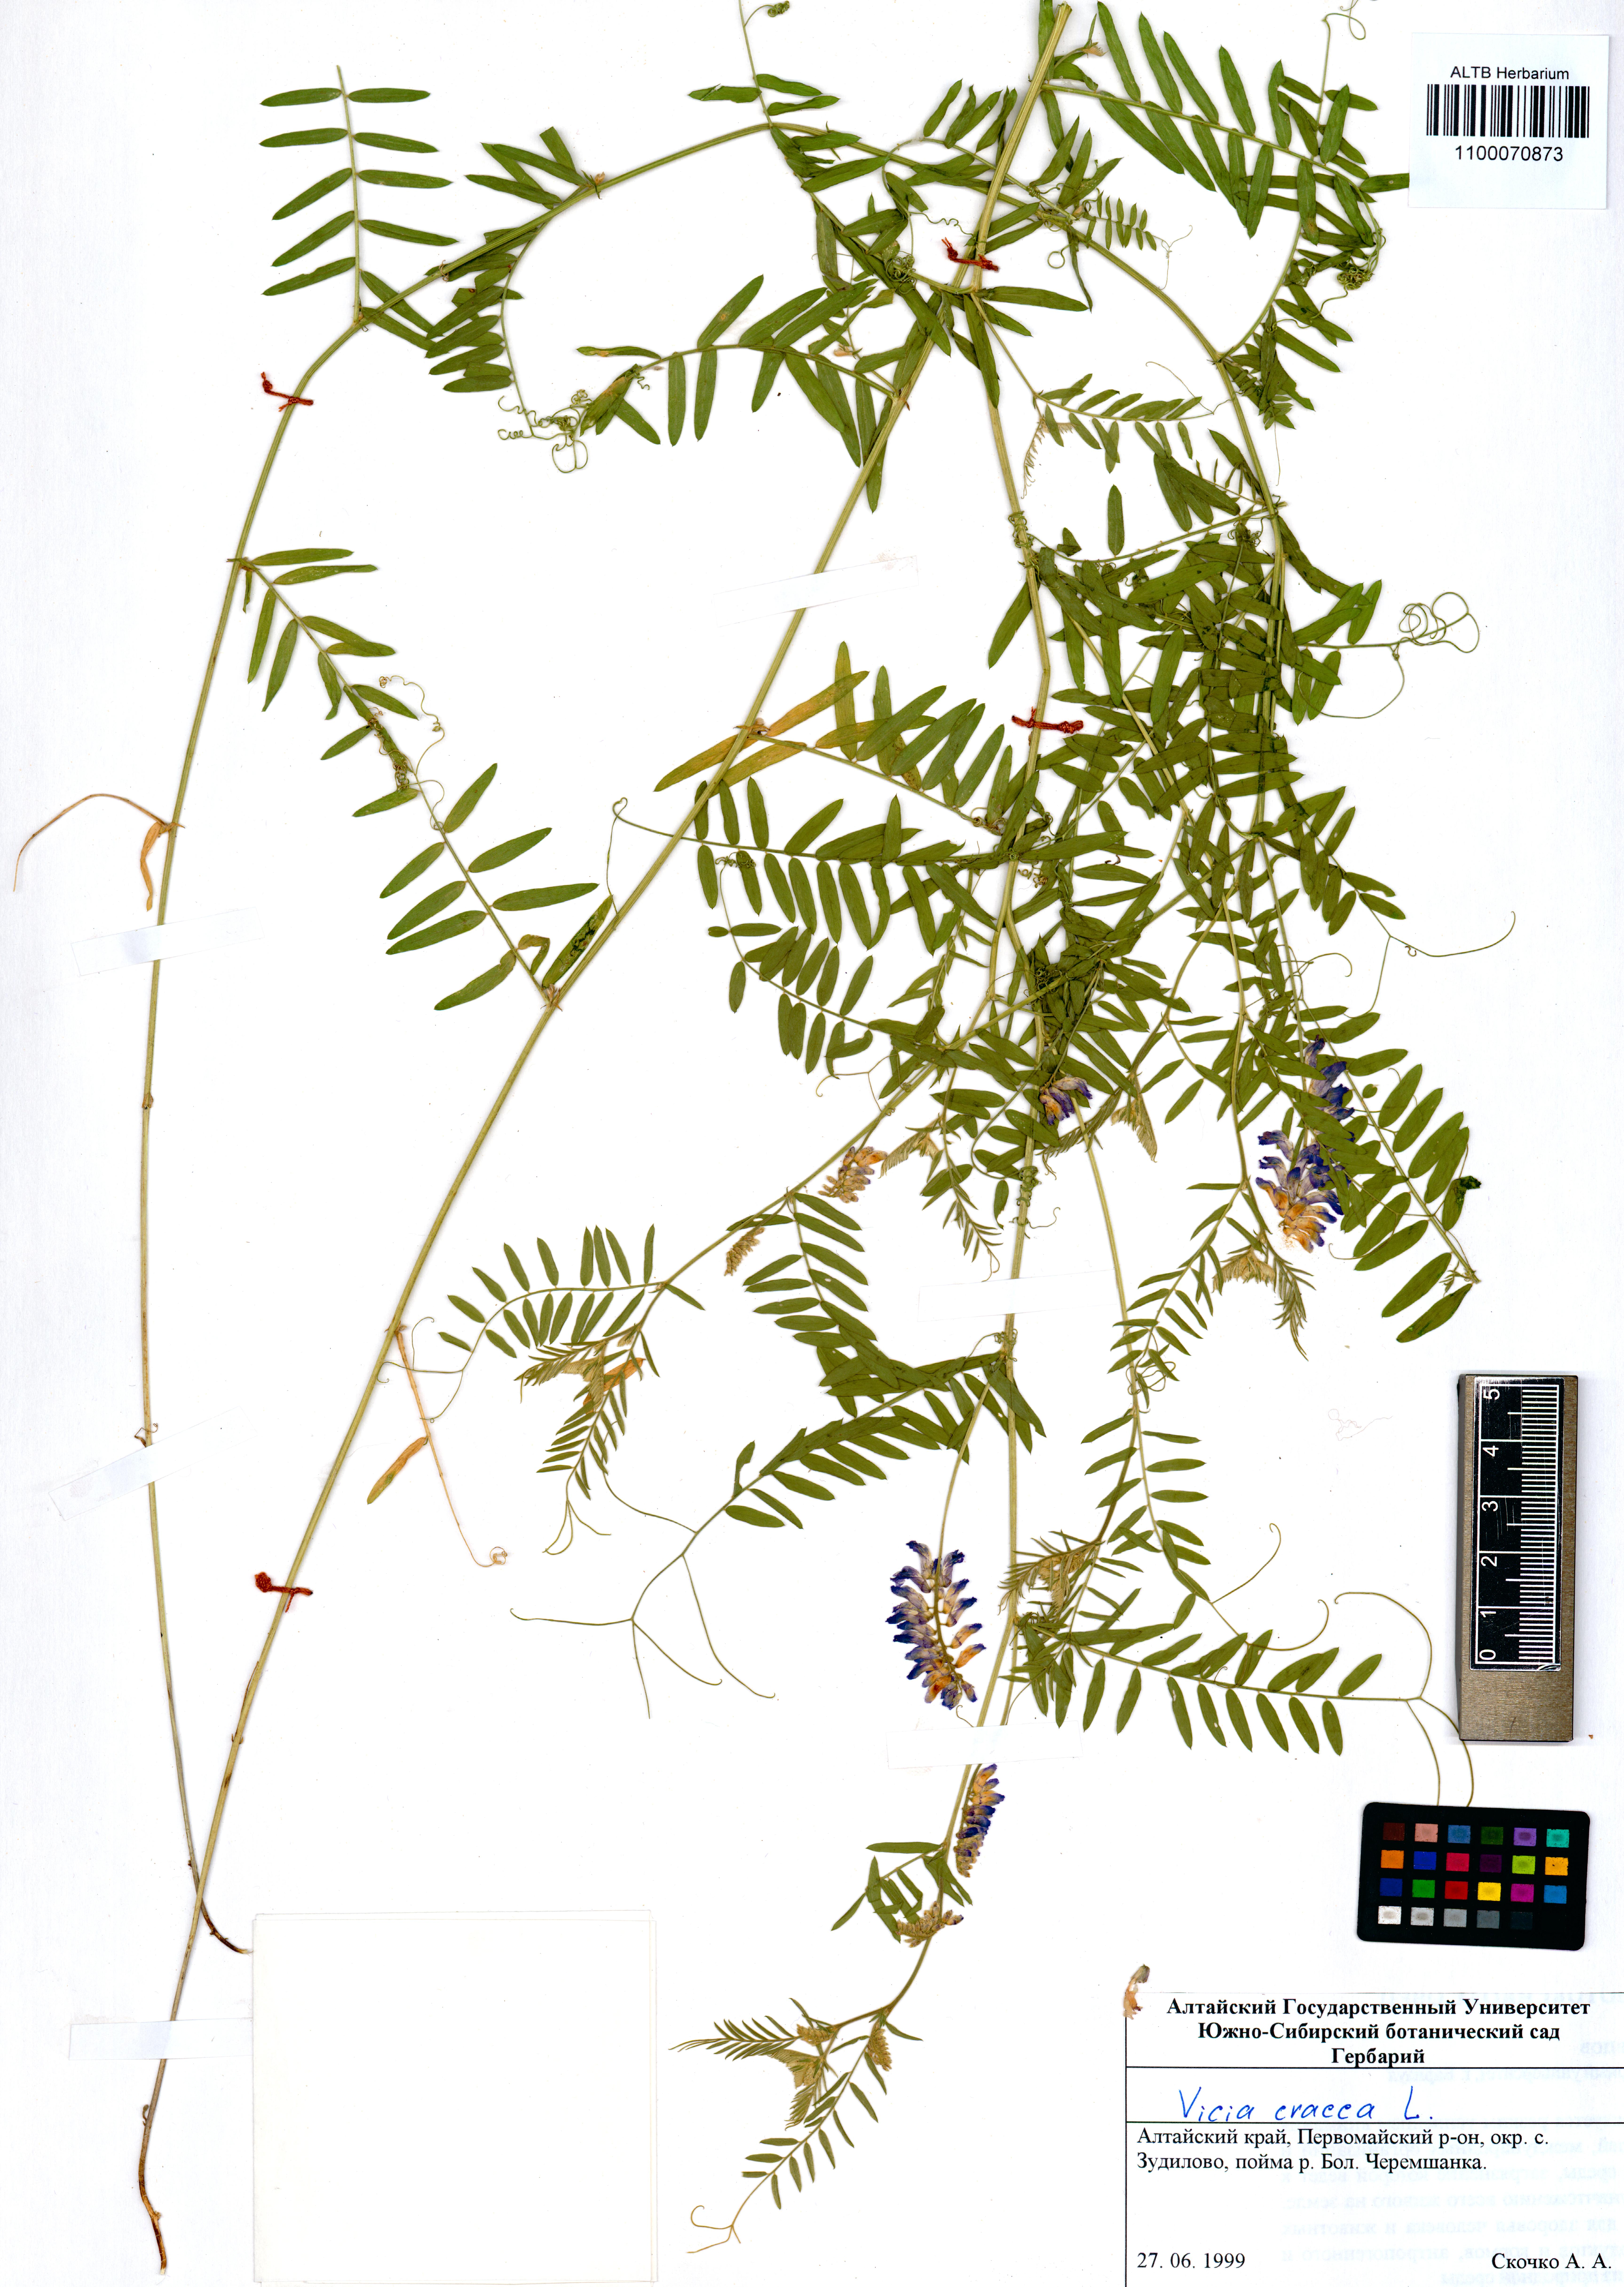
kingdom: Plantae
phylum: Tracheophyta
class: Magnoliopsida
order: Fabales
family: Fabaceae
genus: Vicia
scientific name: Vicia cracca
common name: Bird vetch
